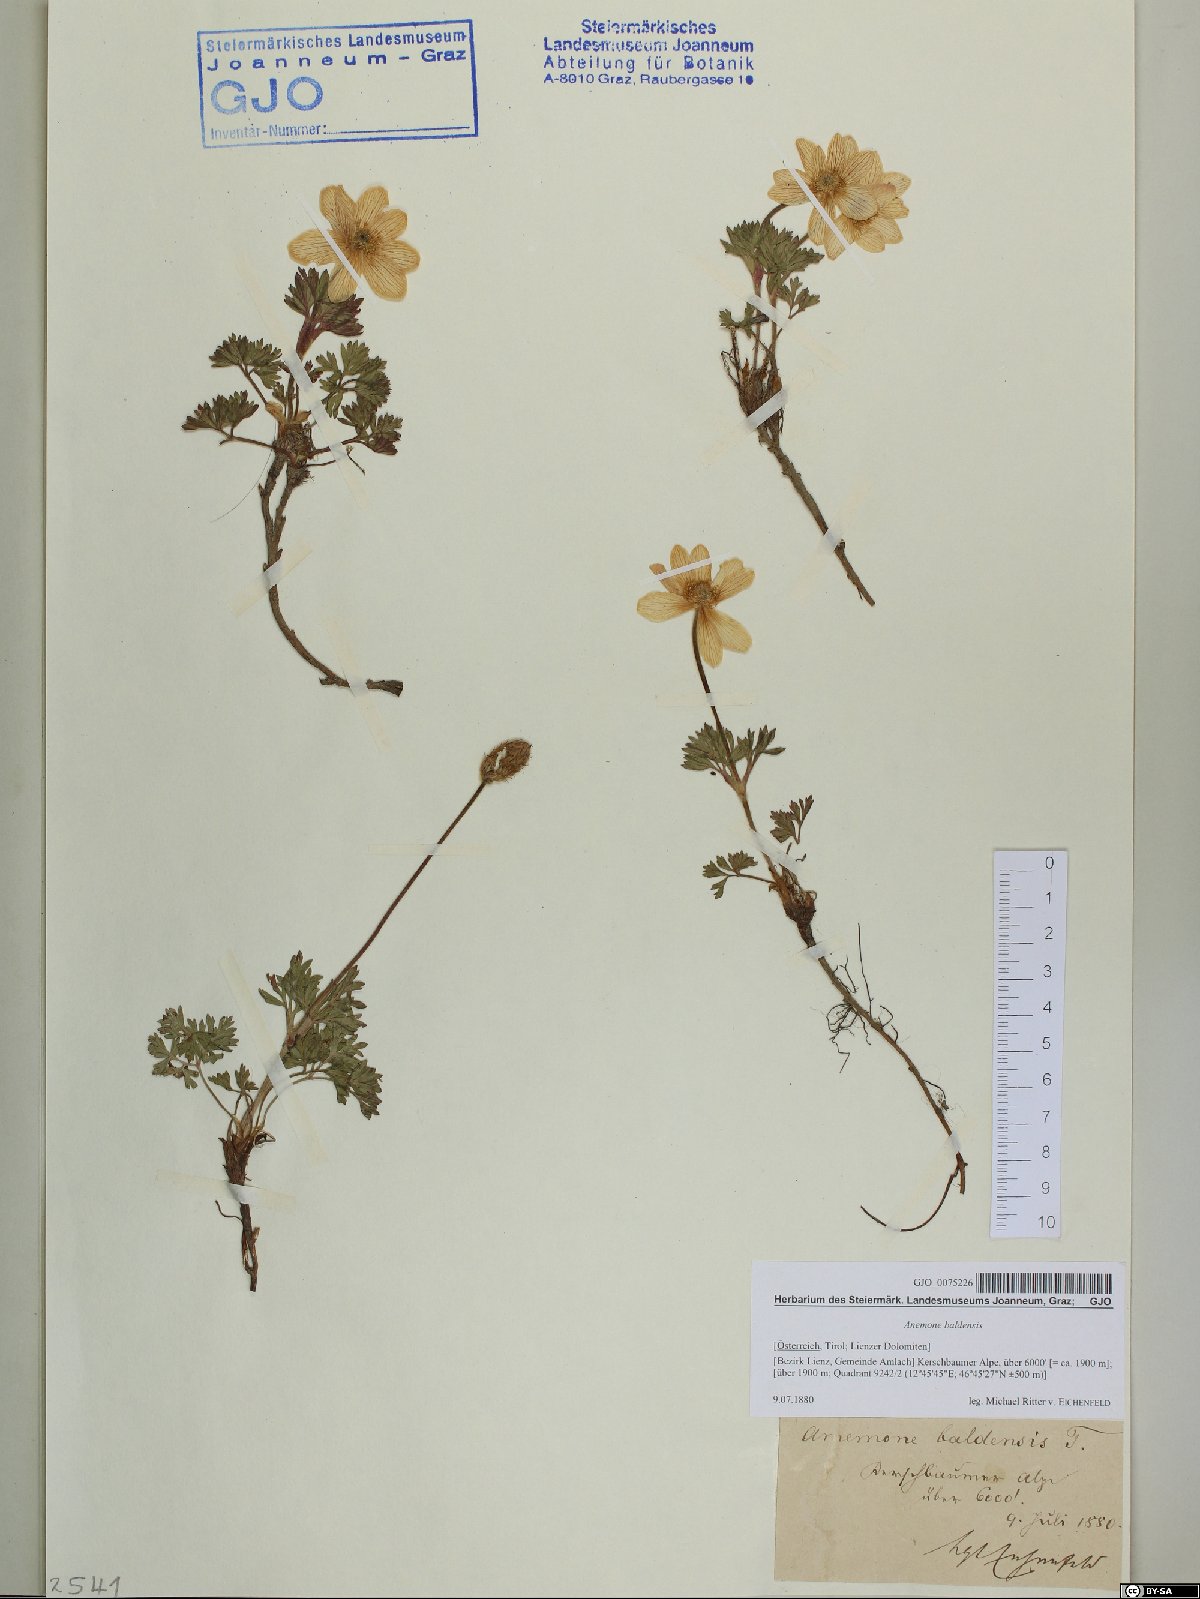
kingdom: Plantae
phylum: Tracheophyta
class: Magnoliopsida
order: Ranunculales
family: Ranunculaceae
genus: Anemone
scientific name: Anemone baldensis
